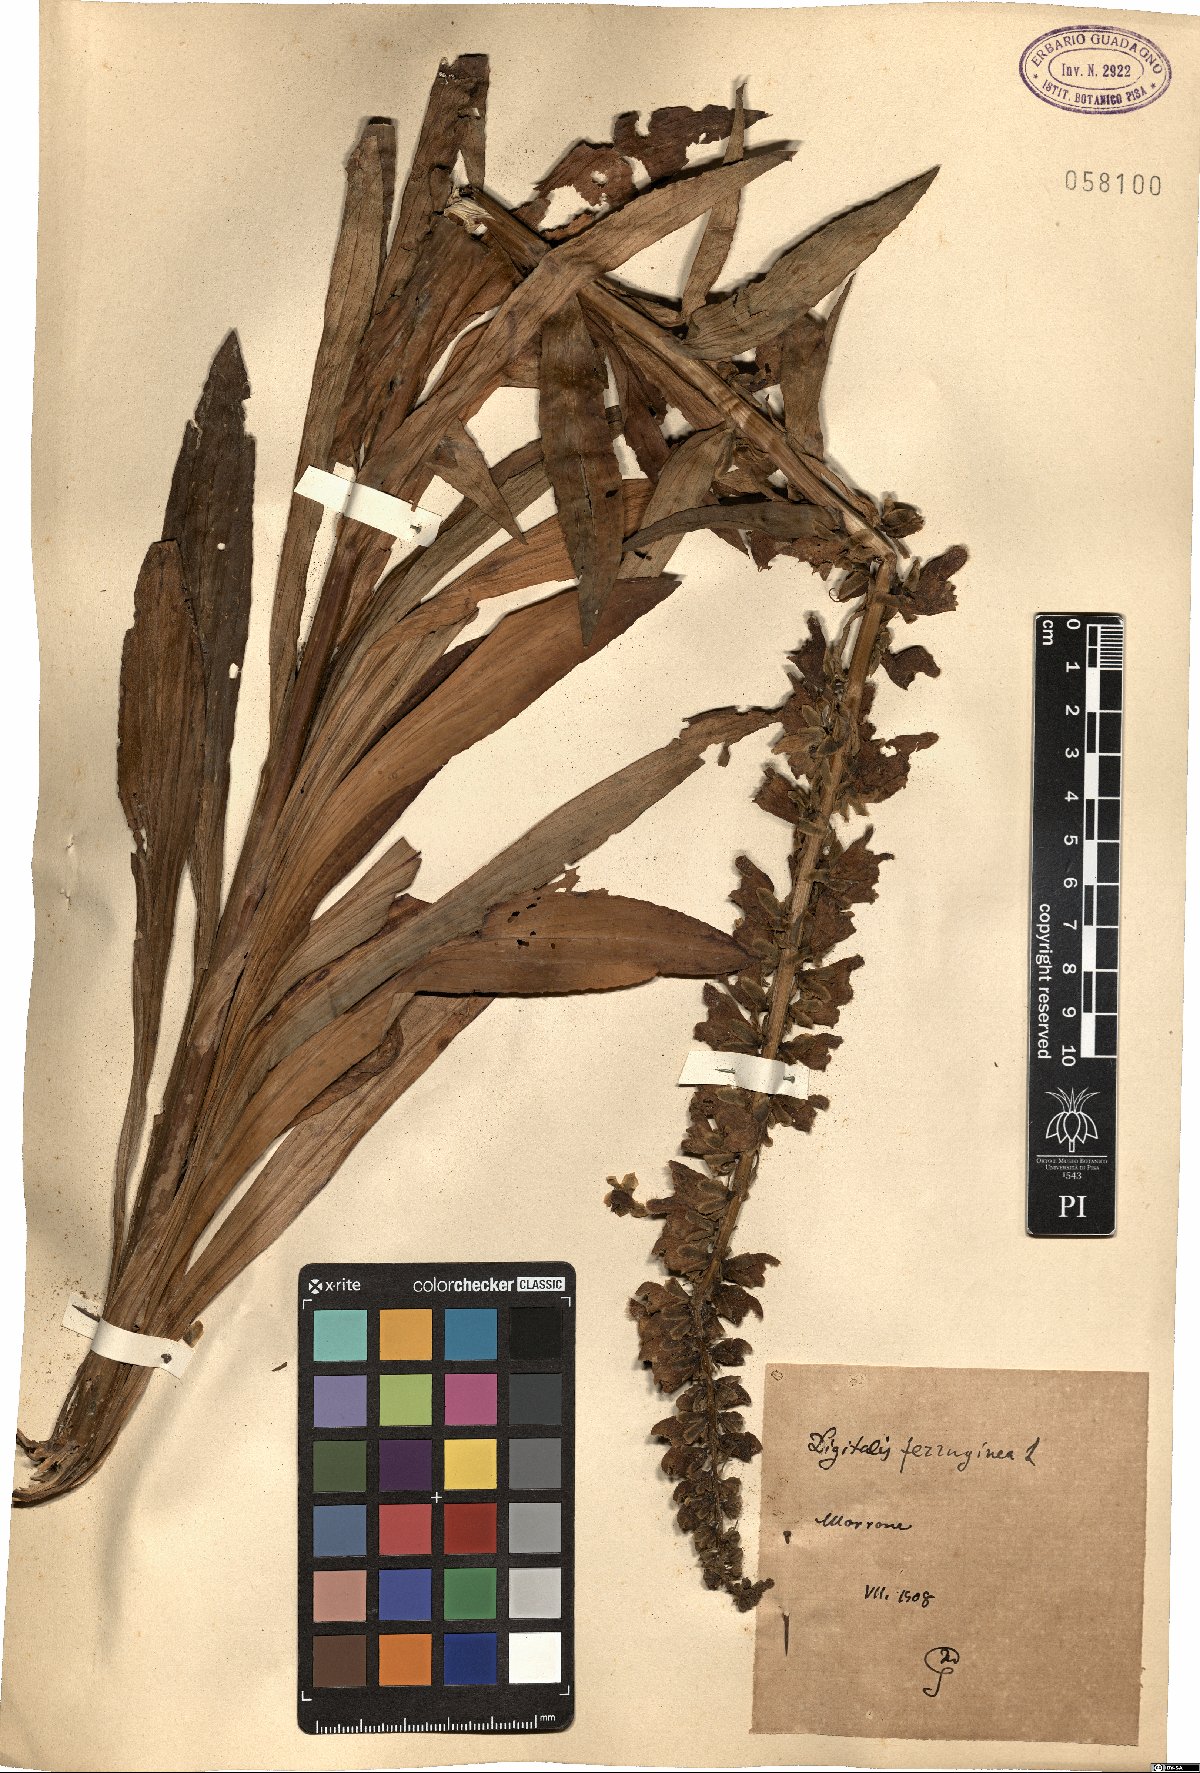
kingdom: Plantae
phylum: Tracheophyta
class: Magnoliopsida
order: Lamiales
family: Plantaginaceae
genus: Digitalis
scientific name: Digitalis ferruginea
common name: Rusty foxglove
